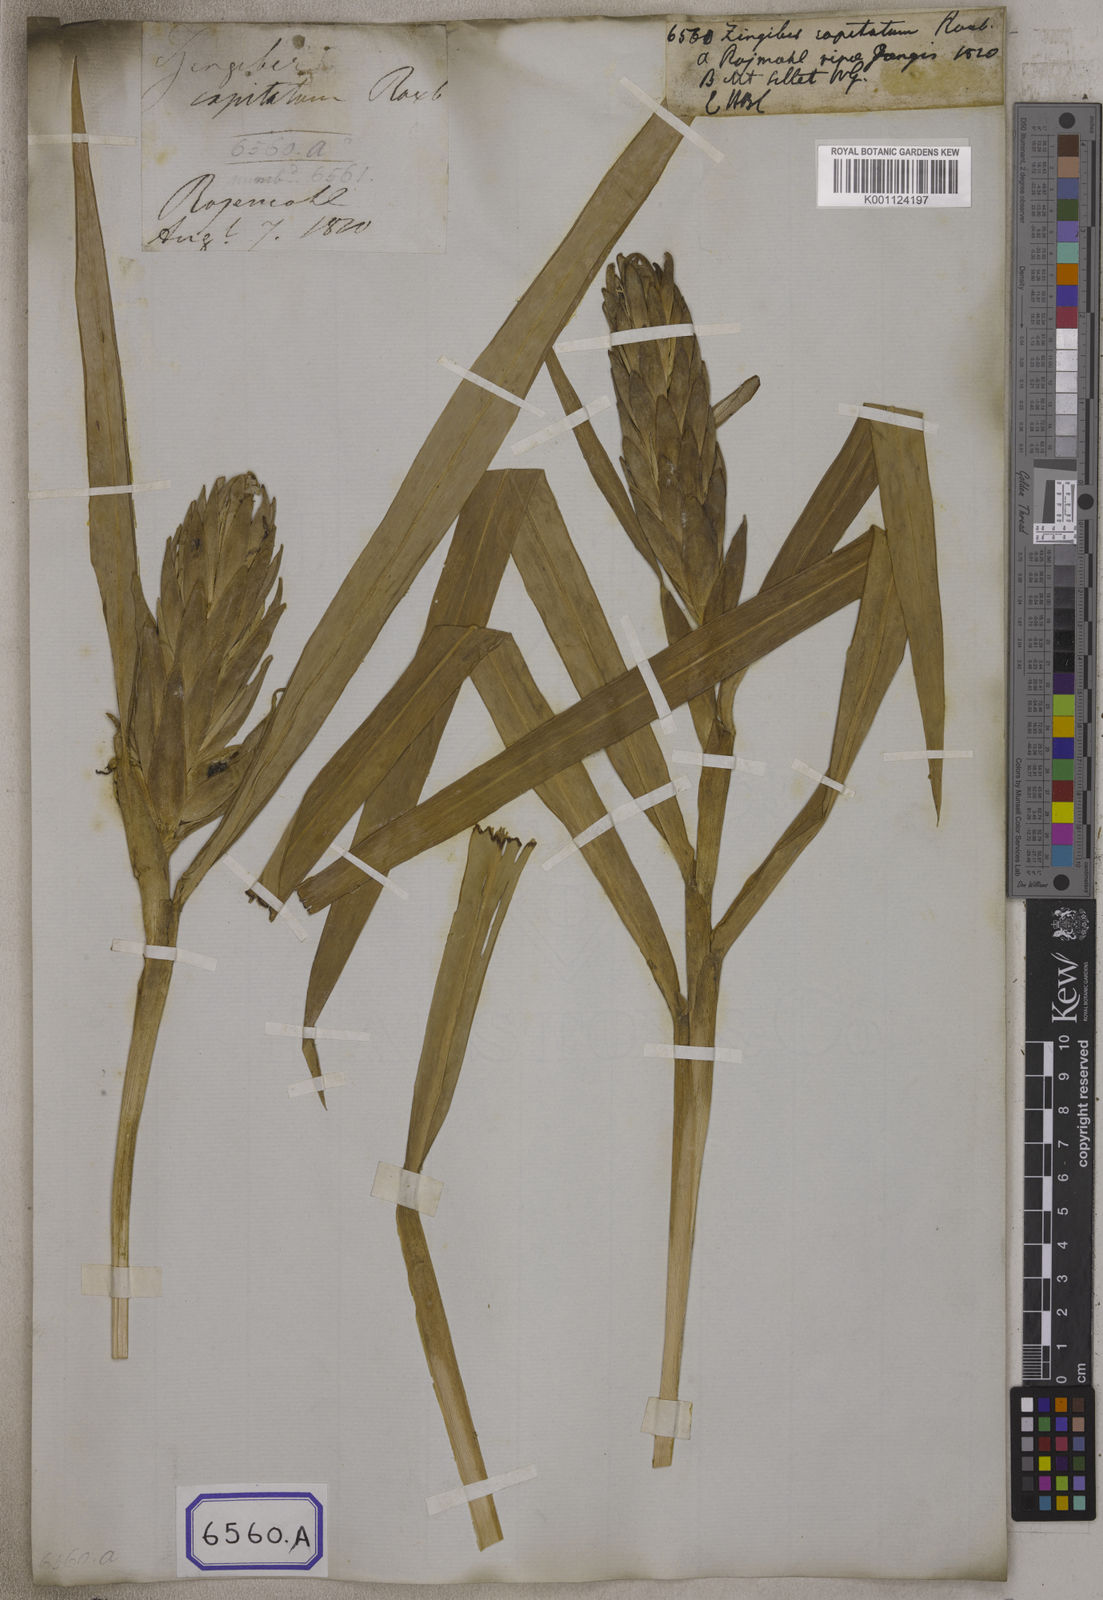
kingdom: Plantae
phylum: Tracheophyta
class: Liliopsida
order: Zingiberales
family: Zingiberaceae
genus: Zingiber
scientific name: Zingiber capitatum
